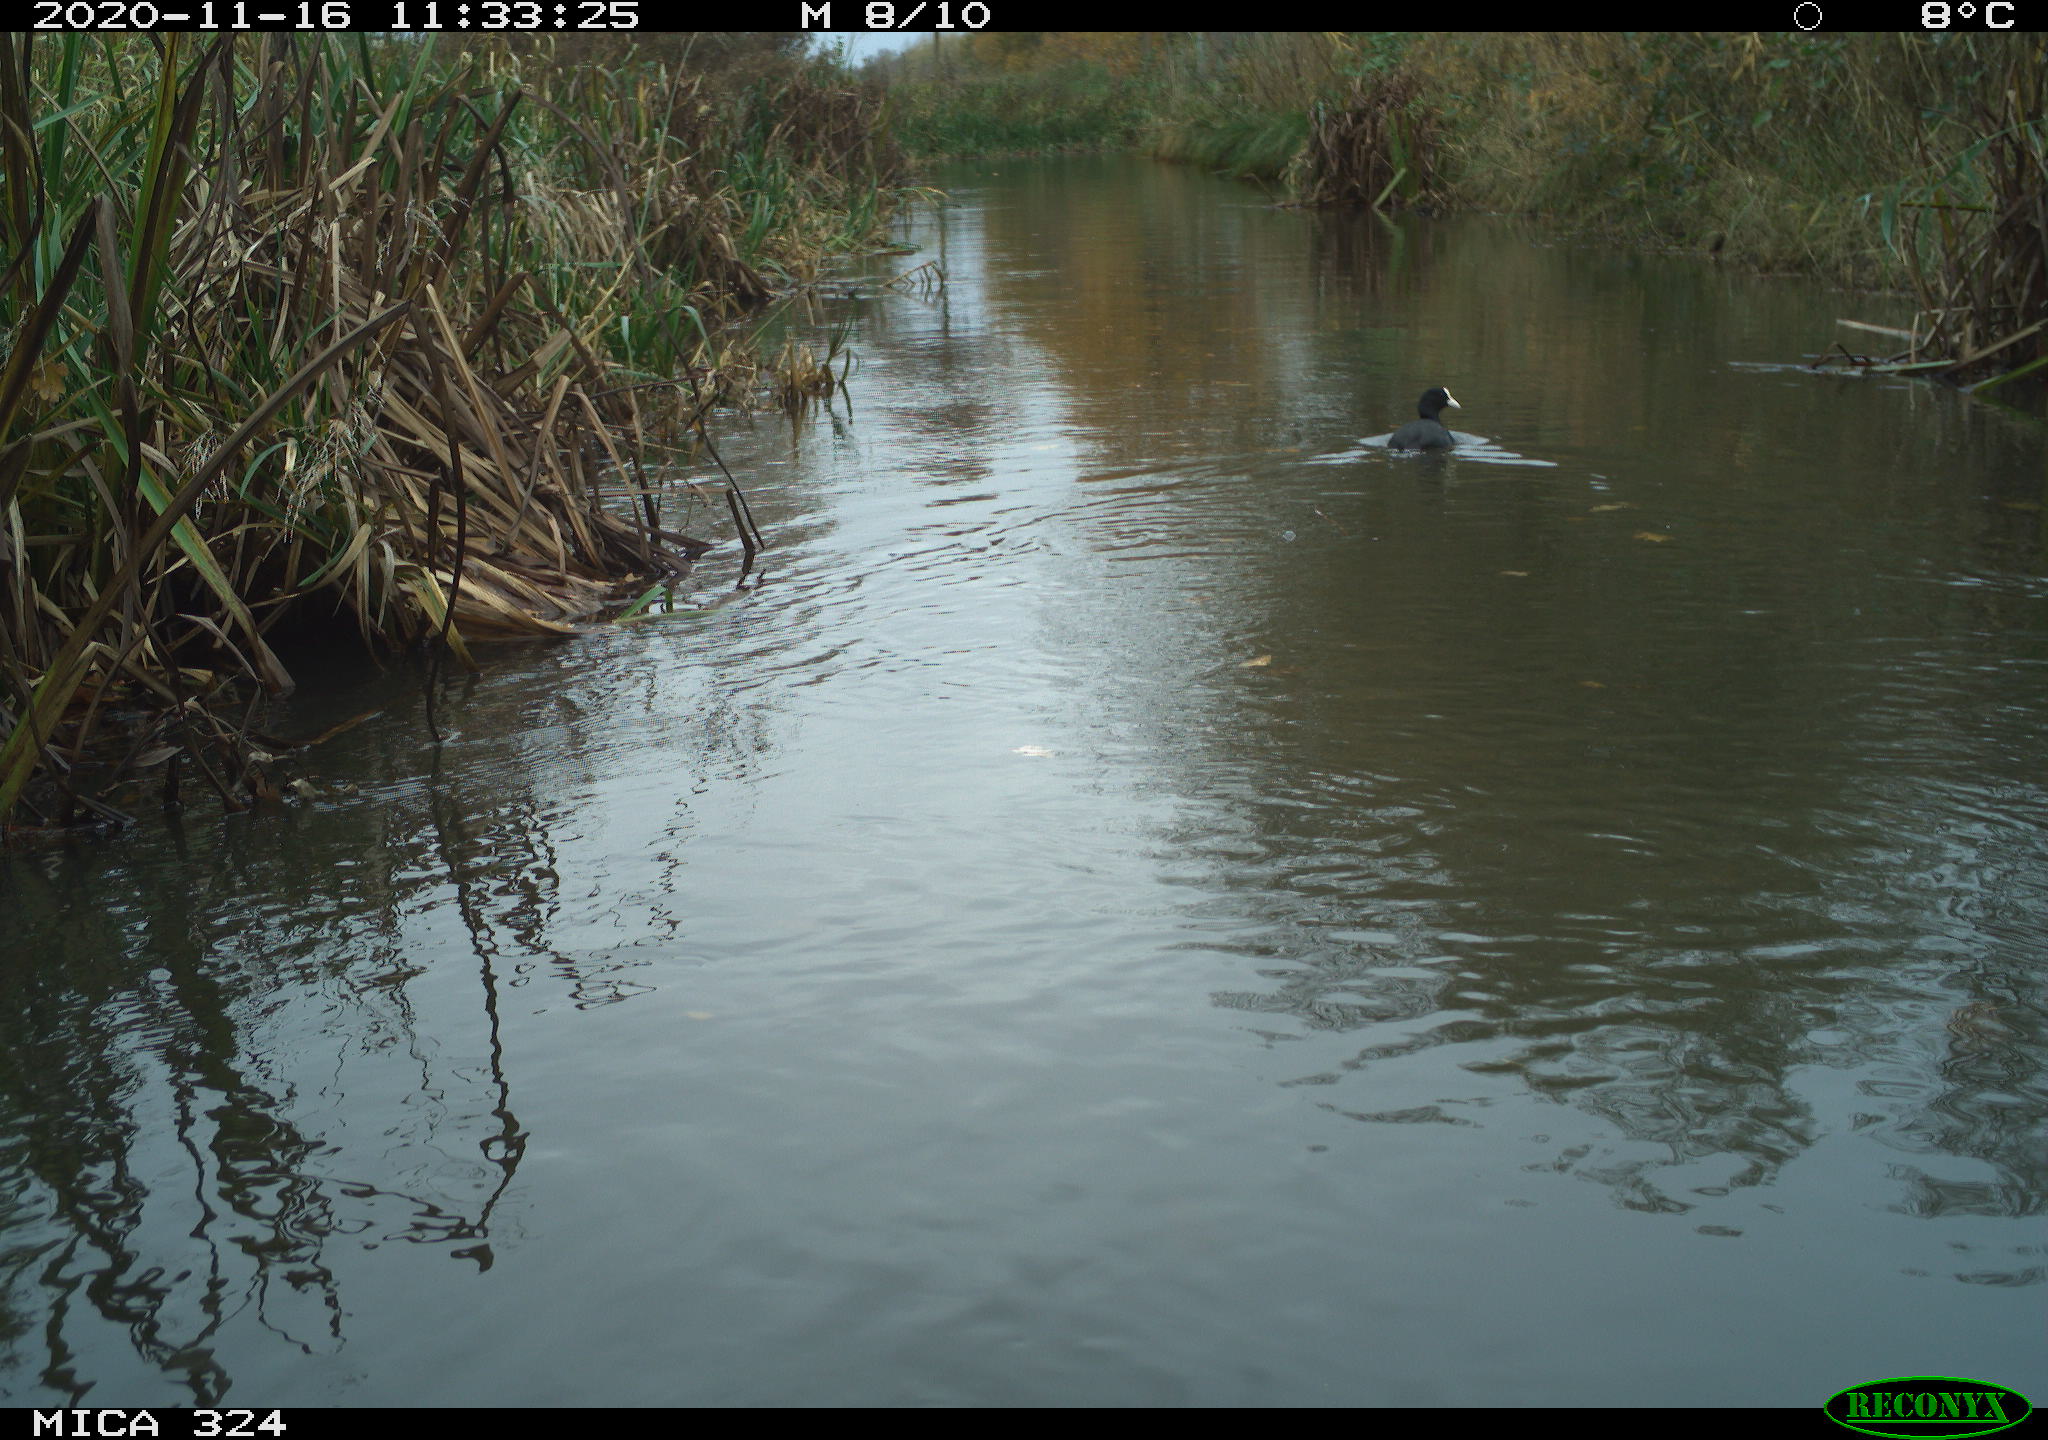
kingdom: Animalia
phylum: Chordata
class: Aves
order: Gruiformes
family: Rallidae
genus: Fulica
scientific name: Fulica atra
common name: Eurasian coot
